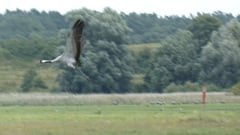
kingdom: Animalia
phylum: Chordata
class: Aves
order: Gruiformes
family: Gruidae
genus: Grus
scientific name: Grus grus
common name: Common crane
